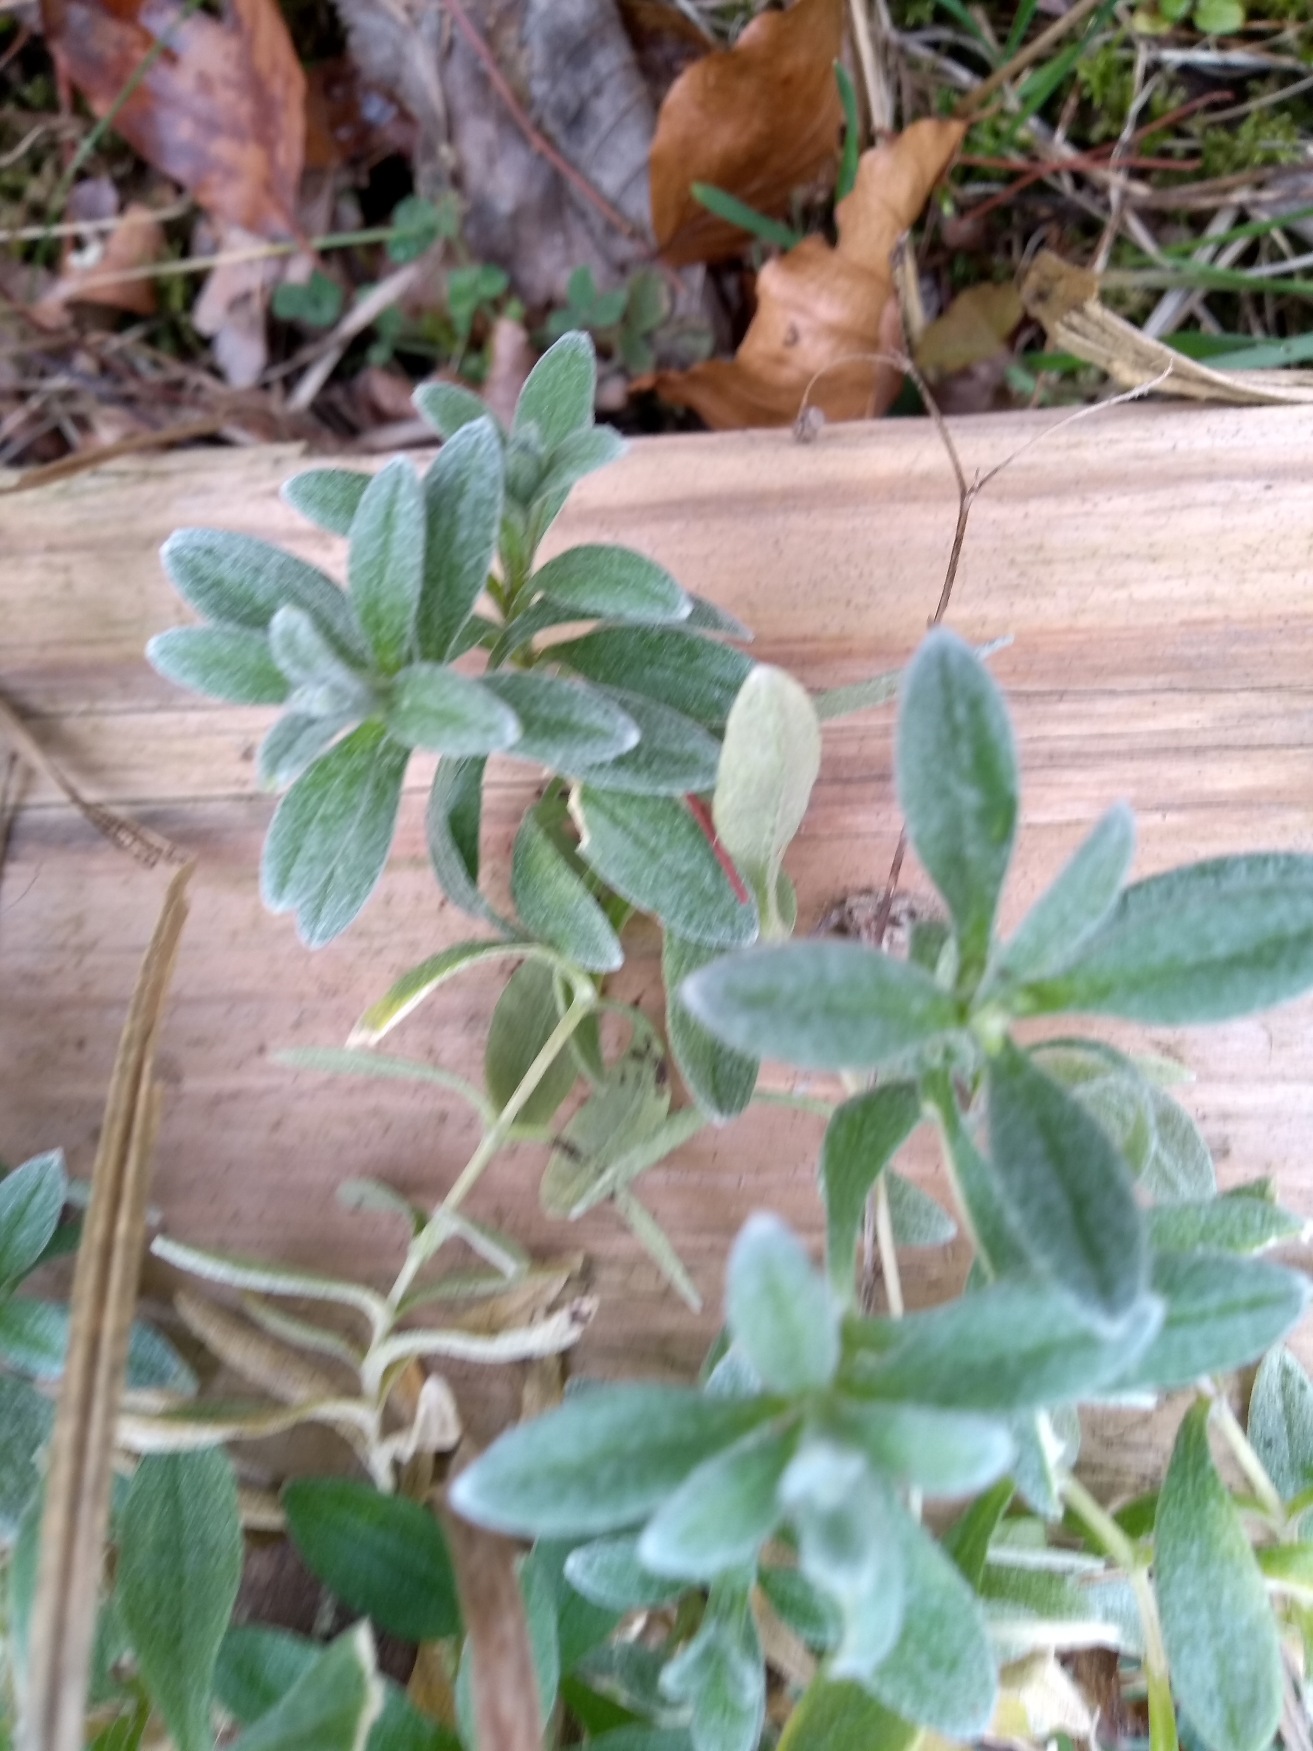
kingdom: Plantae
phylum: Tracheophyta
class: Magnoliopsida
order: Caryophyllales
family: Caryophyllaceae
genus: Cerastium
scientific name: Cerastium
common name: Storblomstret hønsetarm × filtet hønsetarm
